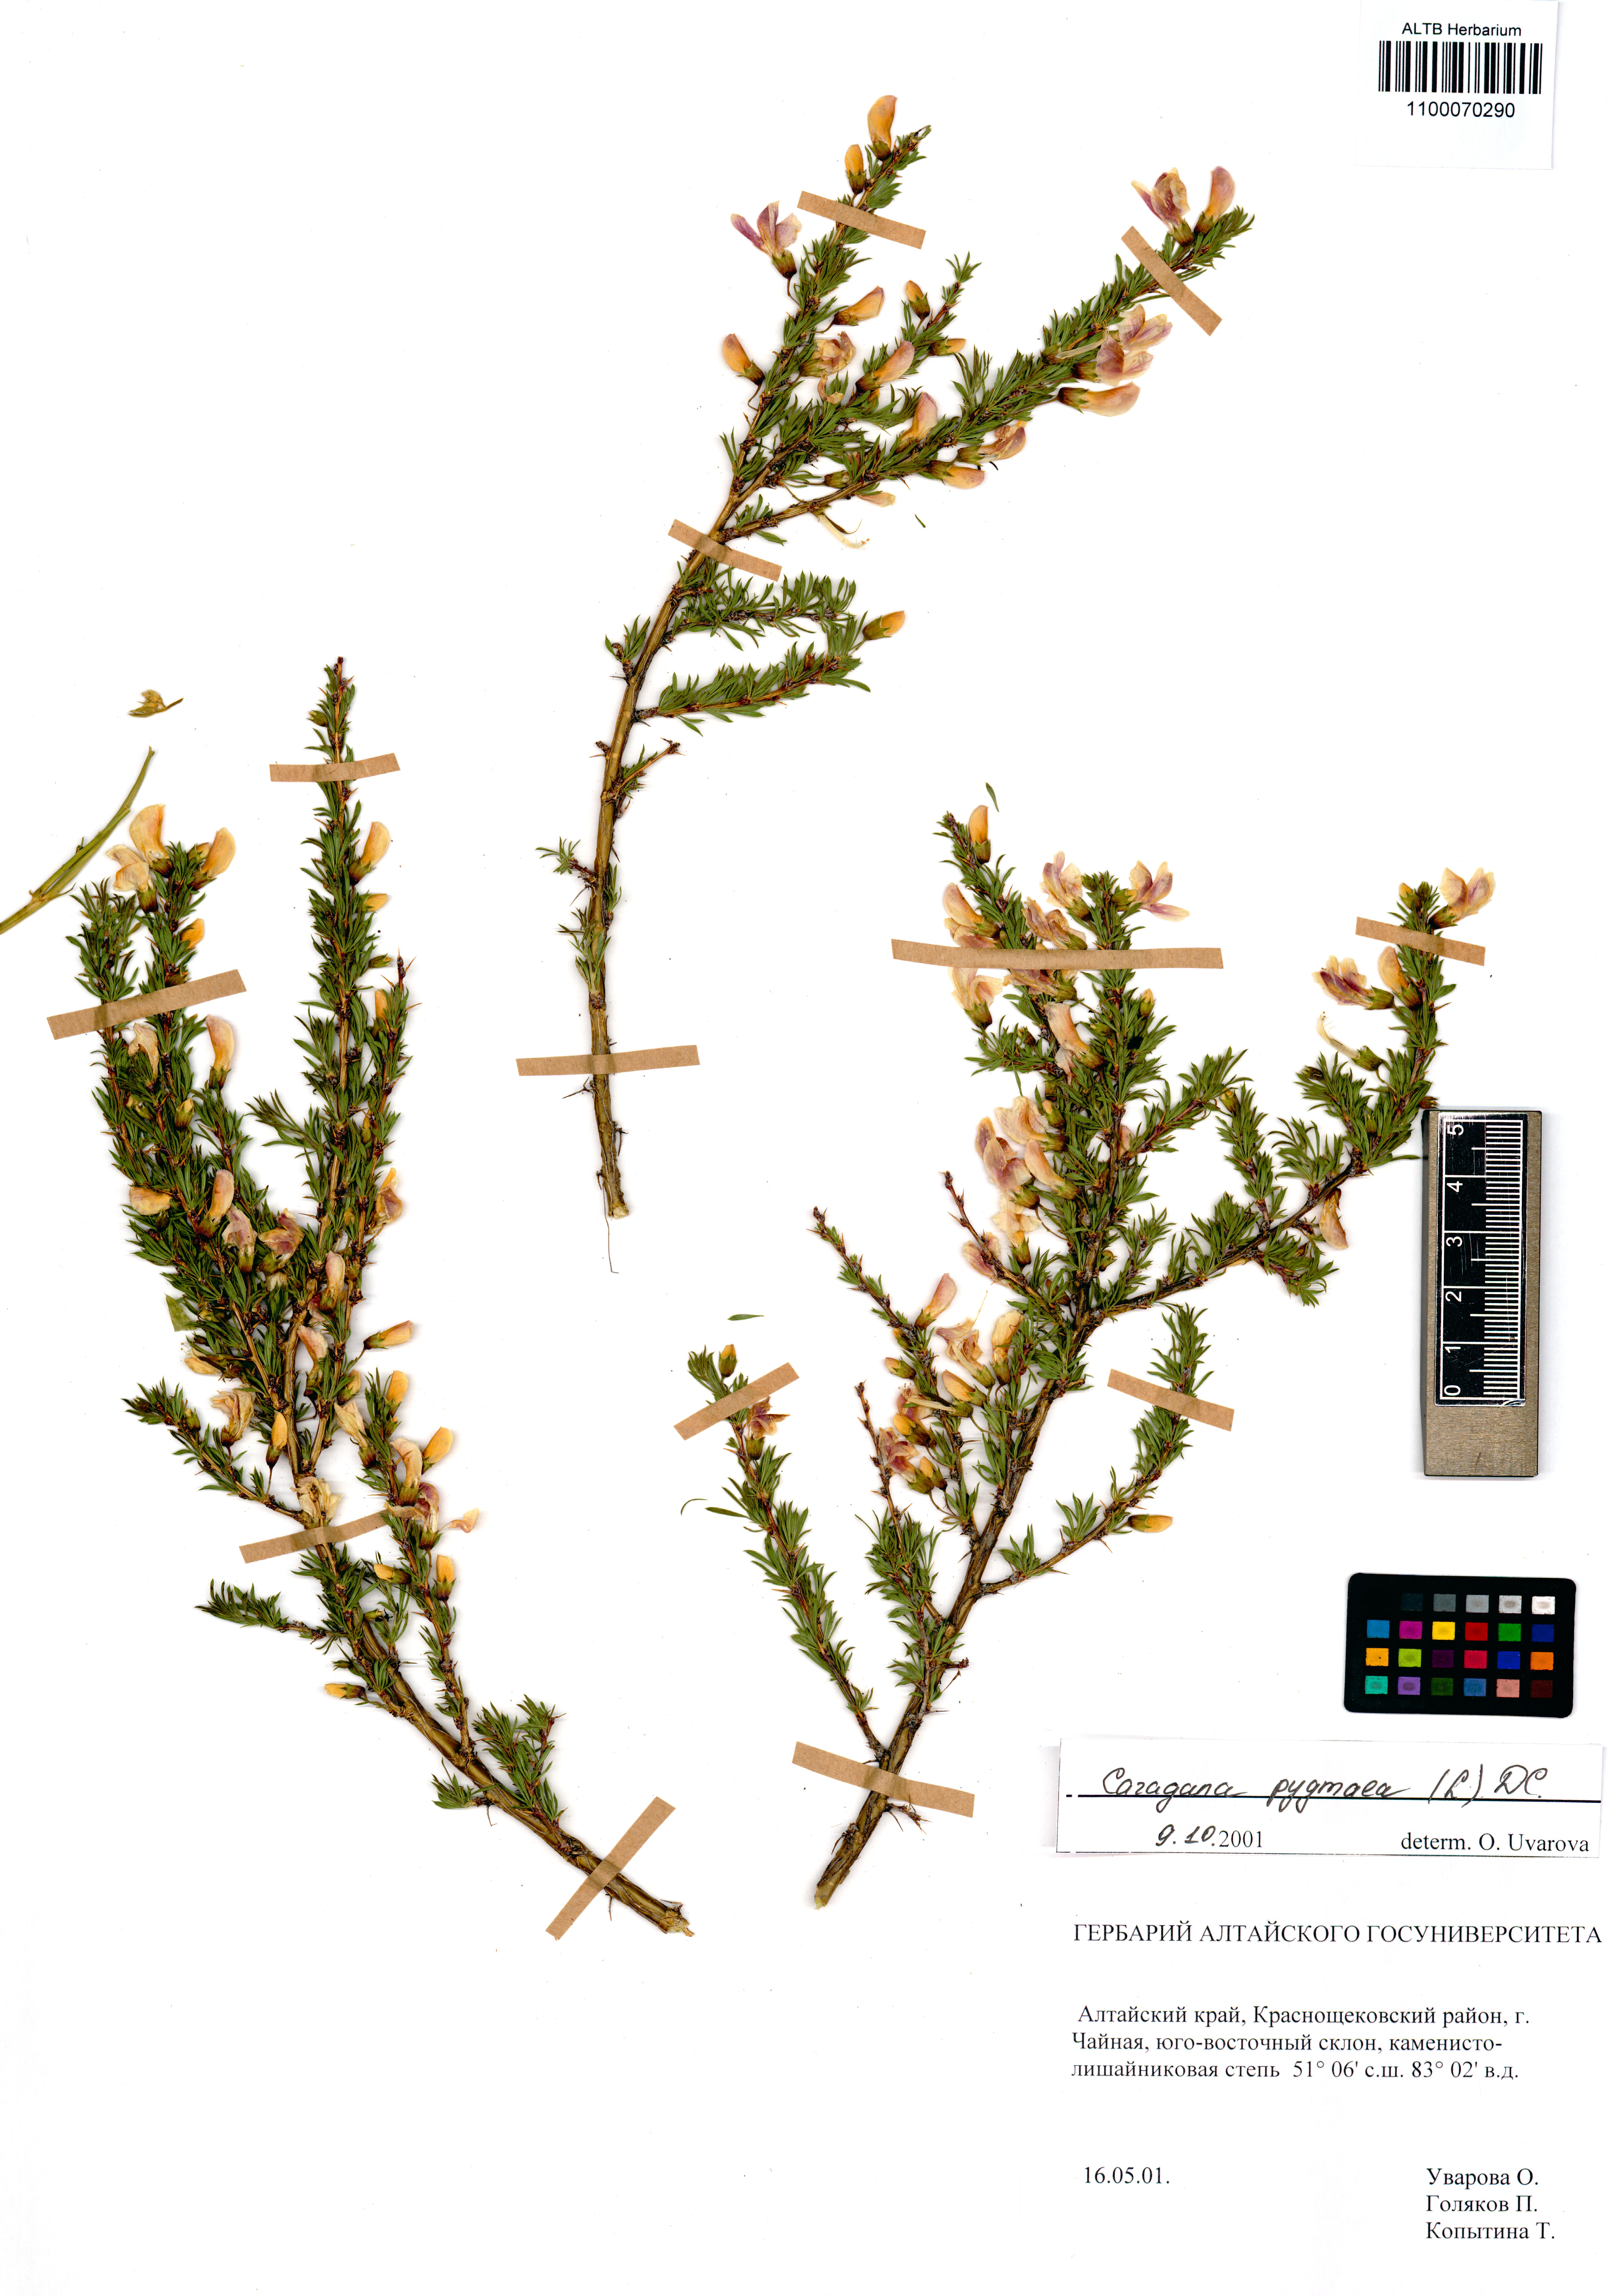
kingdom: Plantae
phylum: Tracheophyta
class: Magnoliopsida
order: Fabales
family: Fabaceae
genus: Caragana
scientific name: Caragana pygmaea
